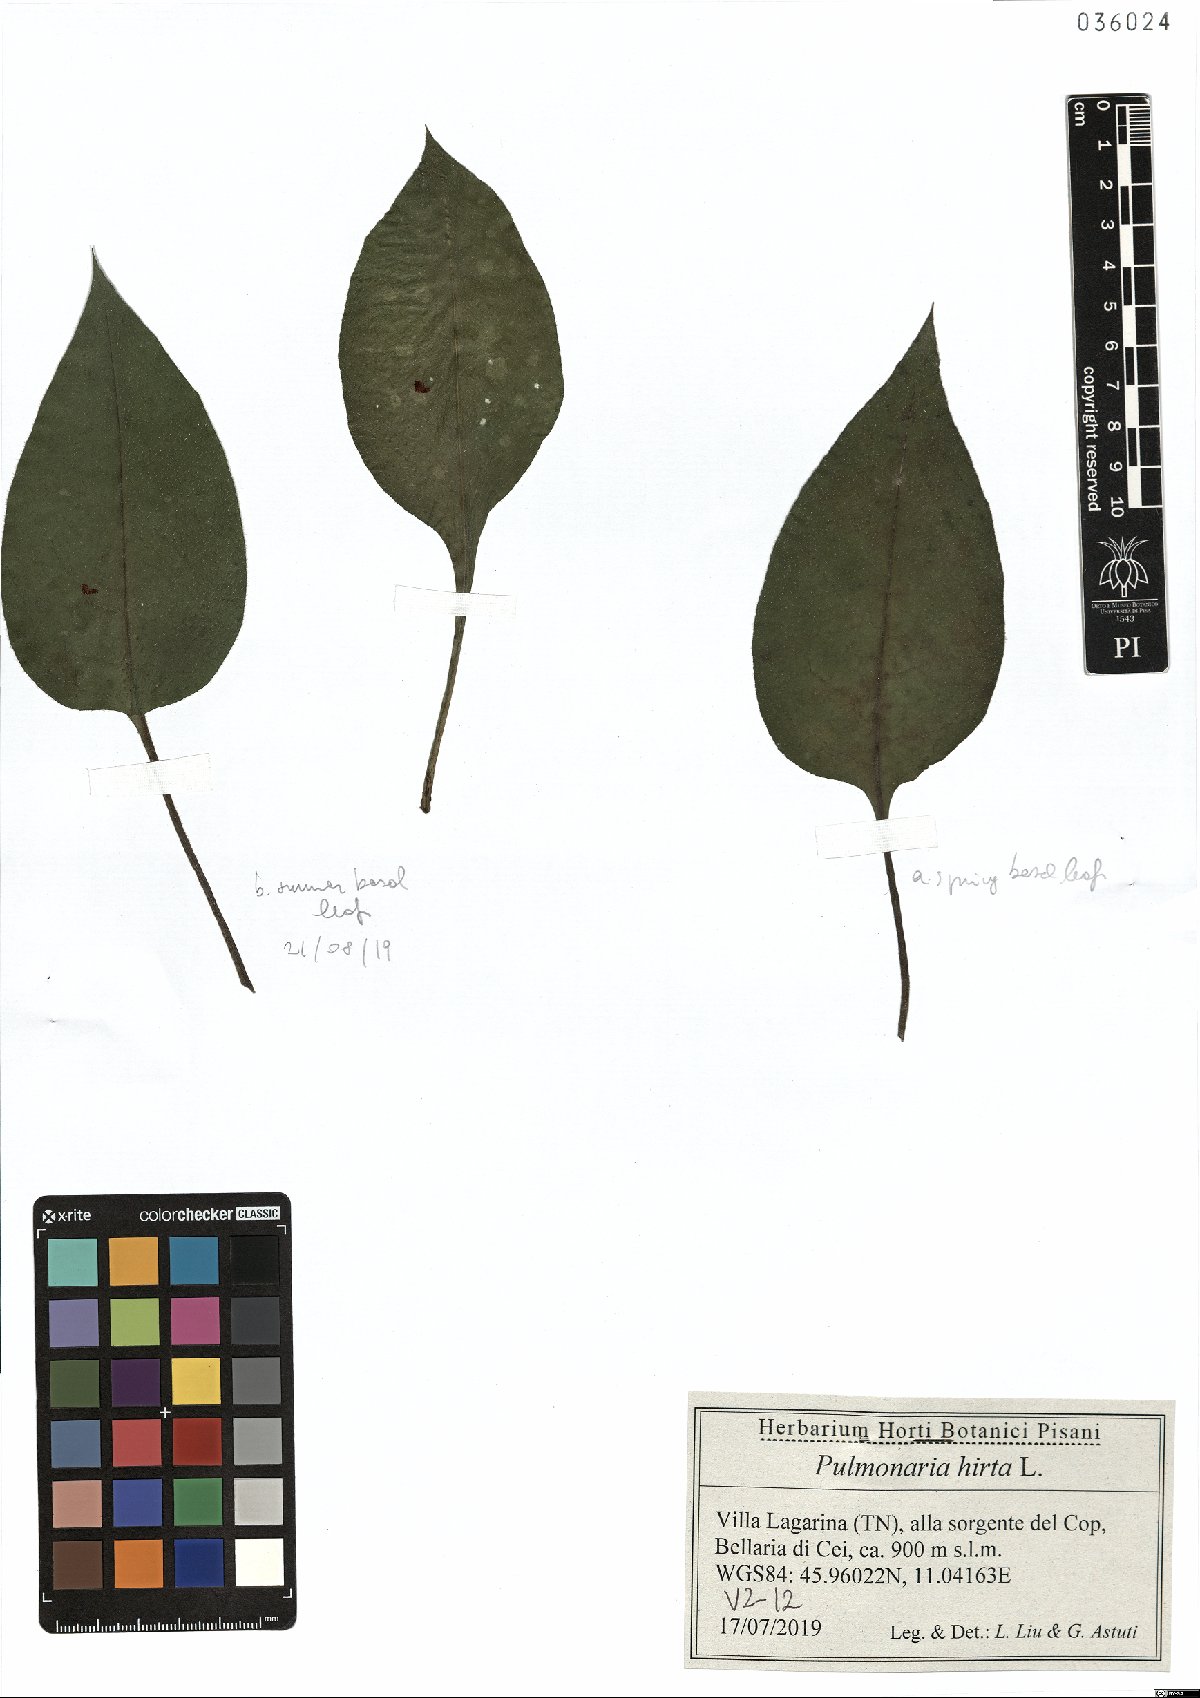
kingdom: Plantae
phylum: Tracheophyta
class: Magnoliopsida
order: Boraginales
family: Boraginaceae
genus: Pulmonaria
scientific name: Pulmonaria hirta
